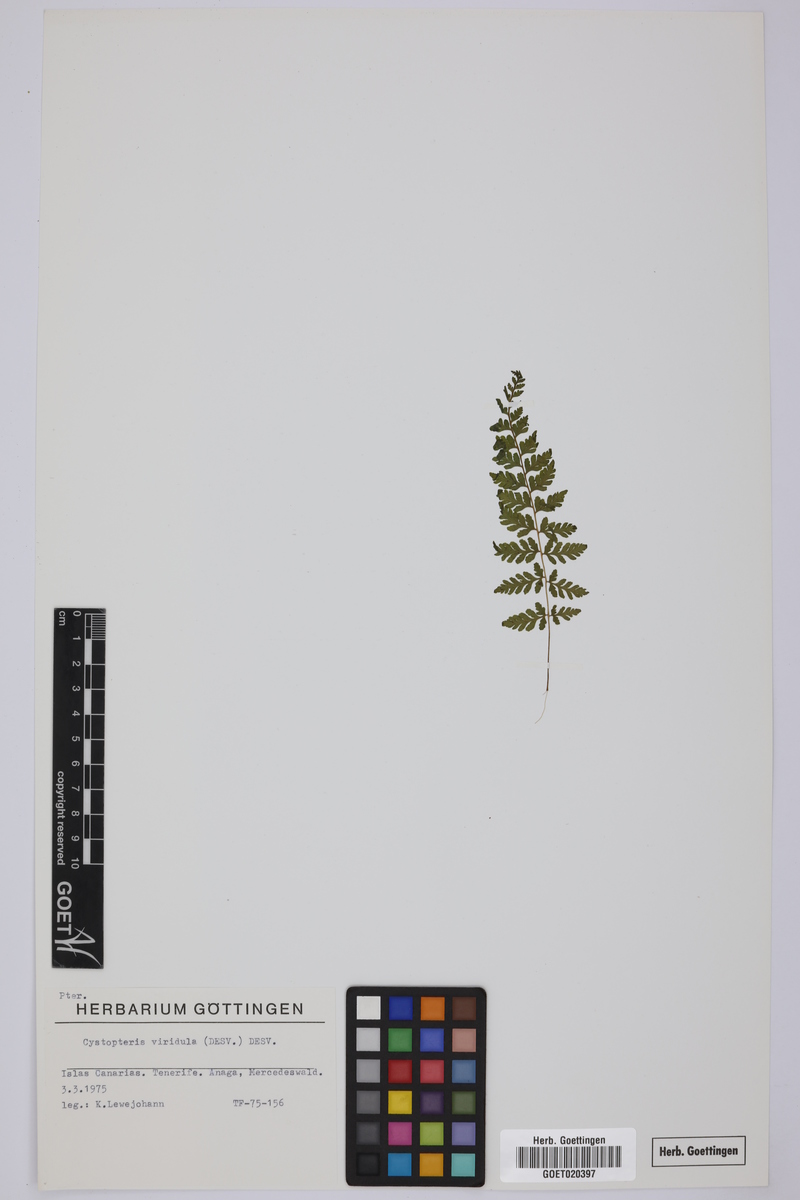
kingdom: Plantae
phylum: Tracheophyta
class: Polypodiopsida
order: Polypodiales
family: Cystopteridaceae
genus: Cystopteris
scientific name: Cystopteris diaphana
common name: Greenish bladder-fern
